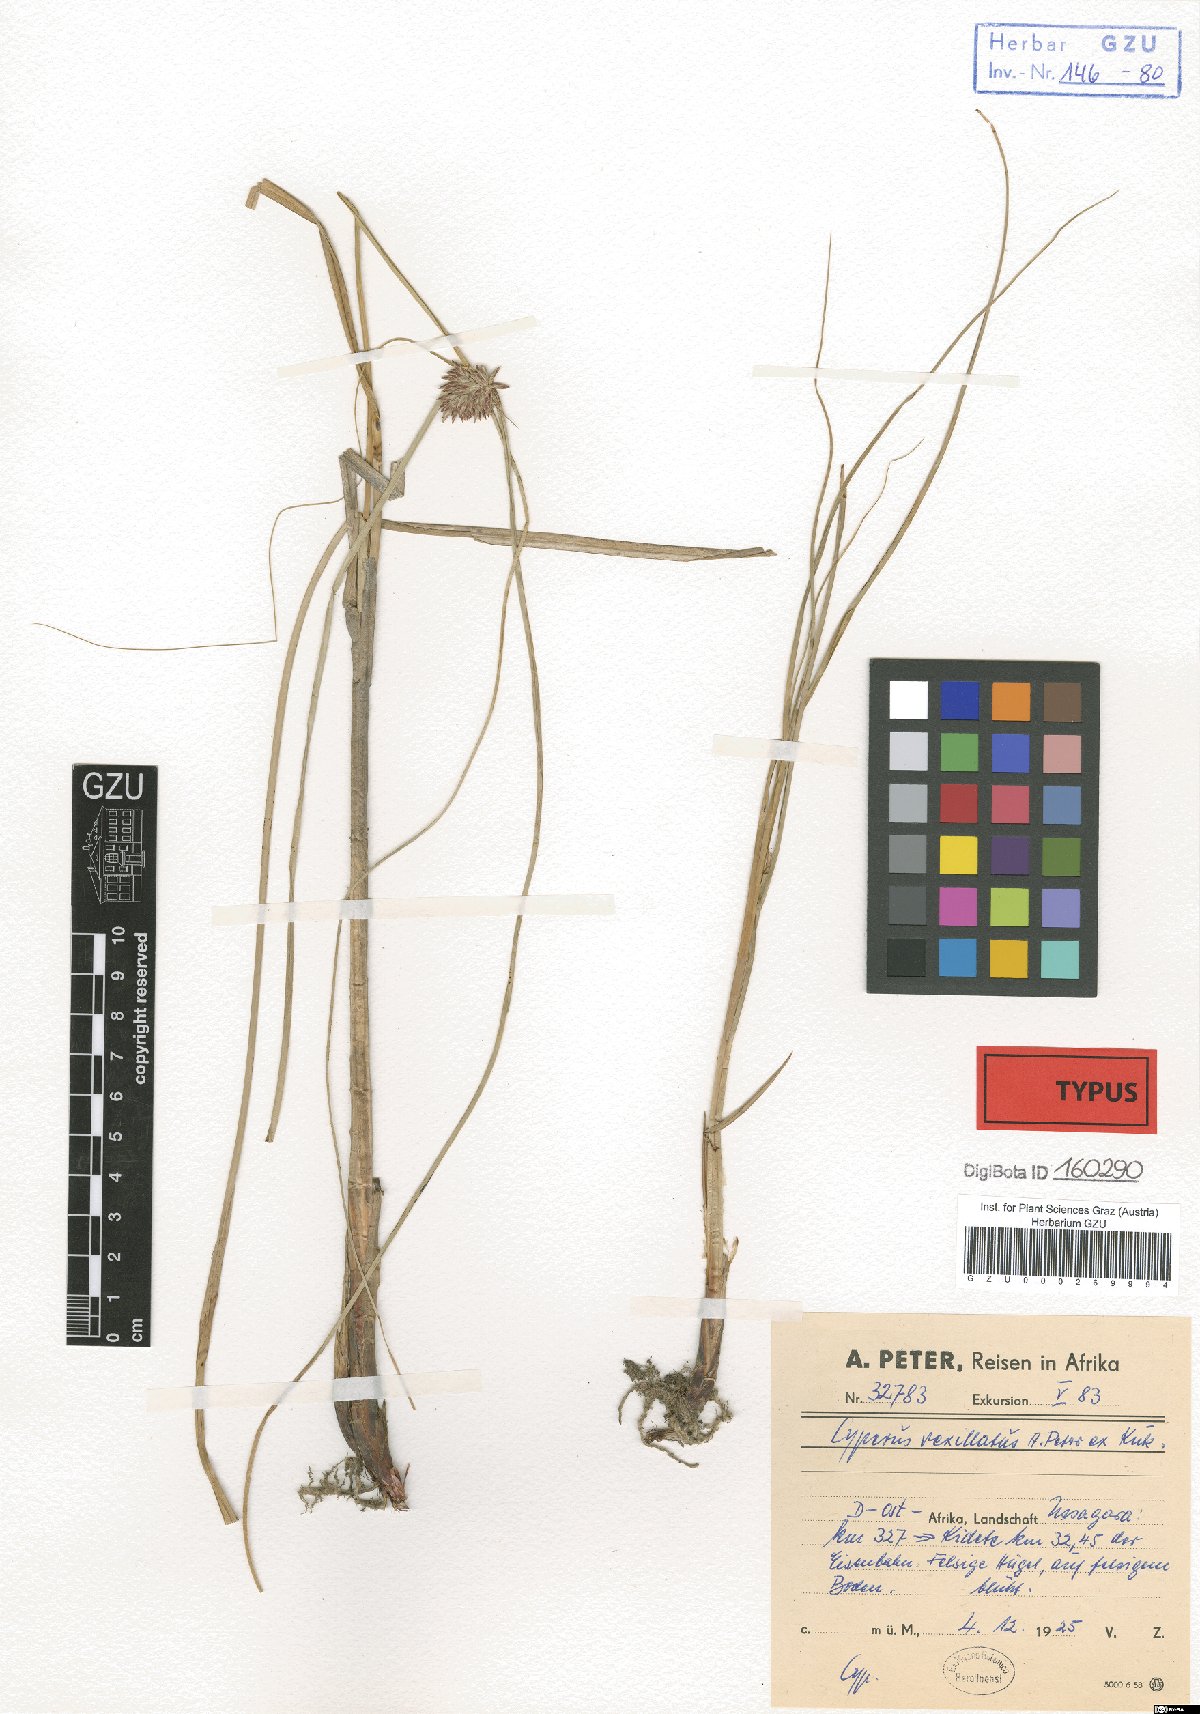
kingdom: Plantae
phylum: Tracheophyta
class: Liliopsida
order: Poales
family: Cyperaceae
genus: Cyperus
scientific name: Cyperus cruentus
